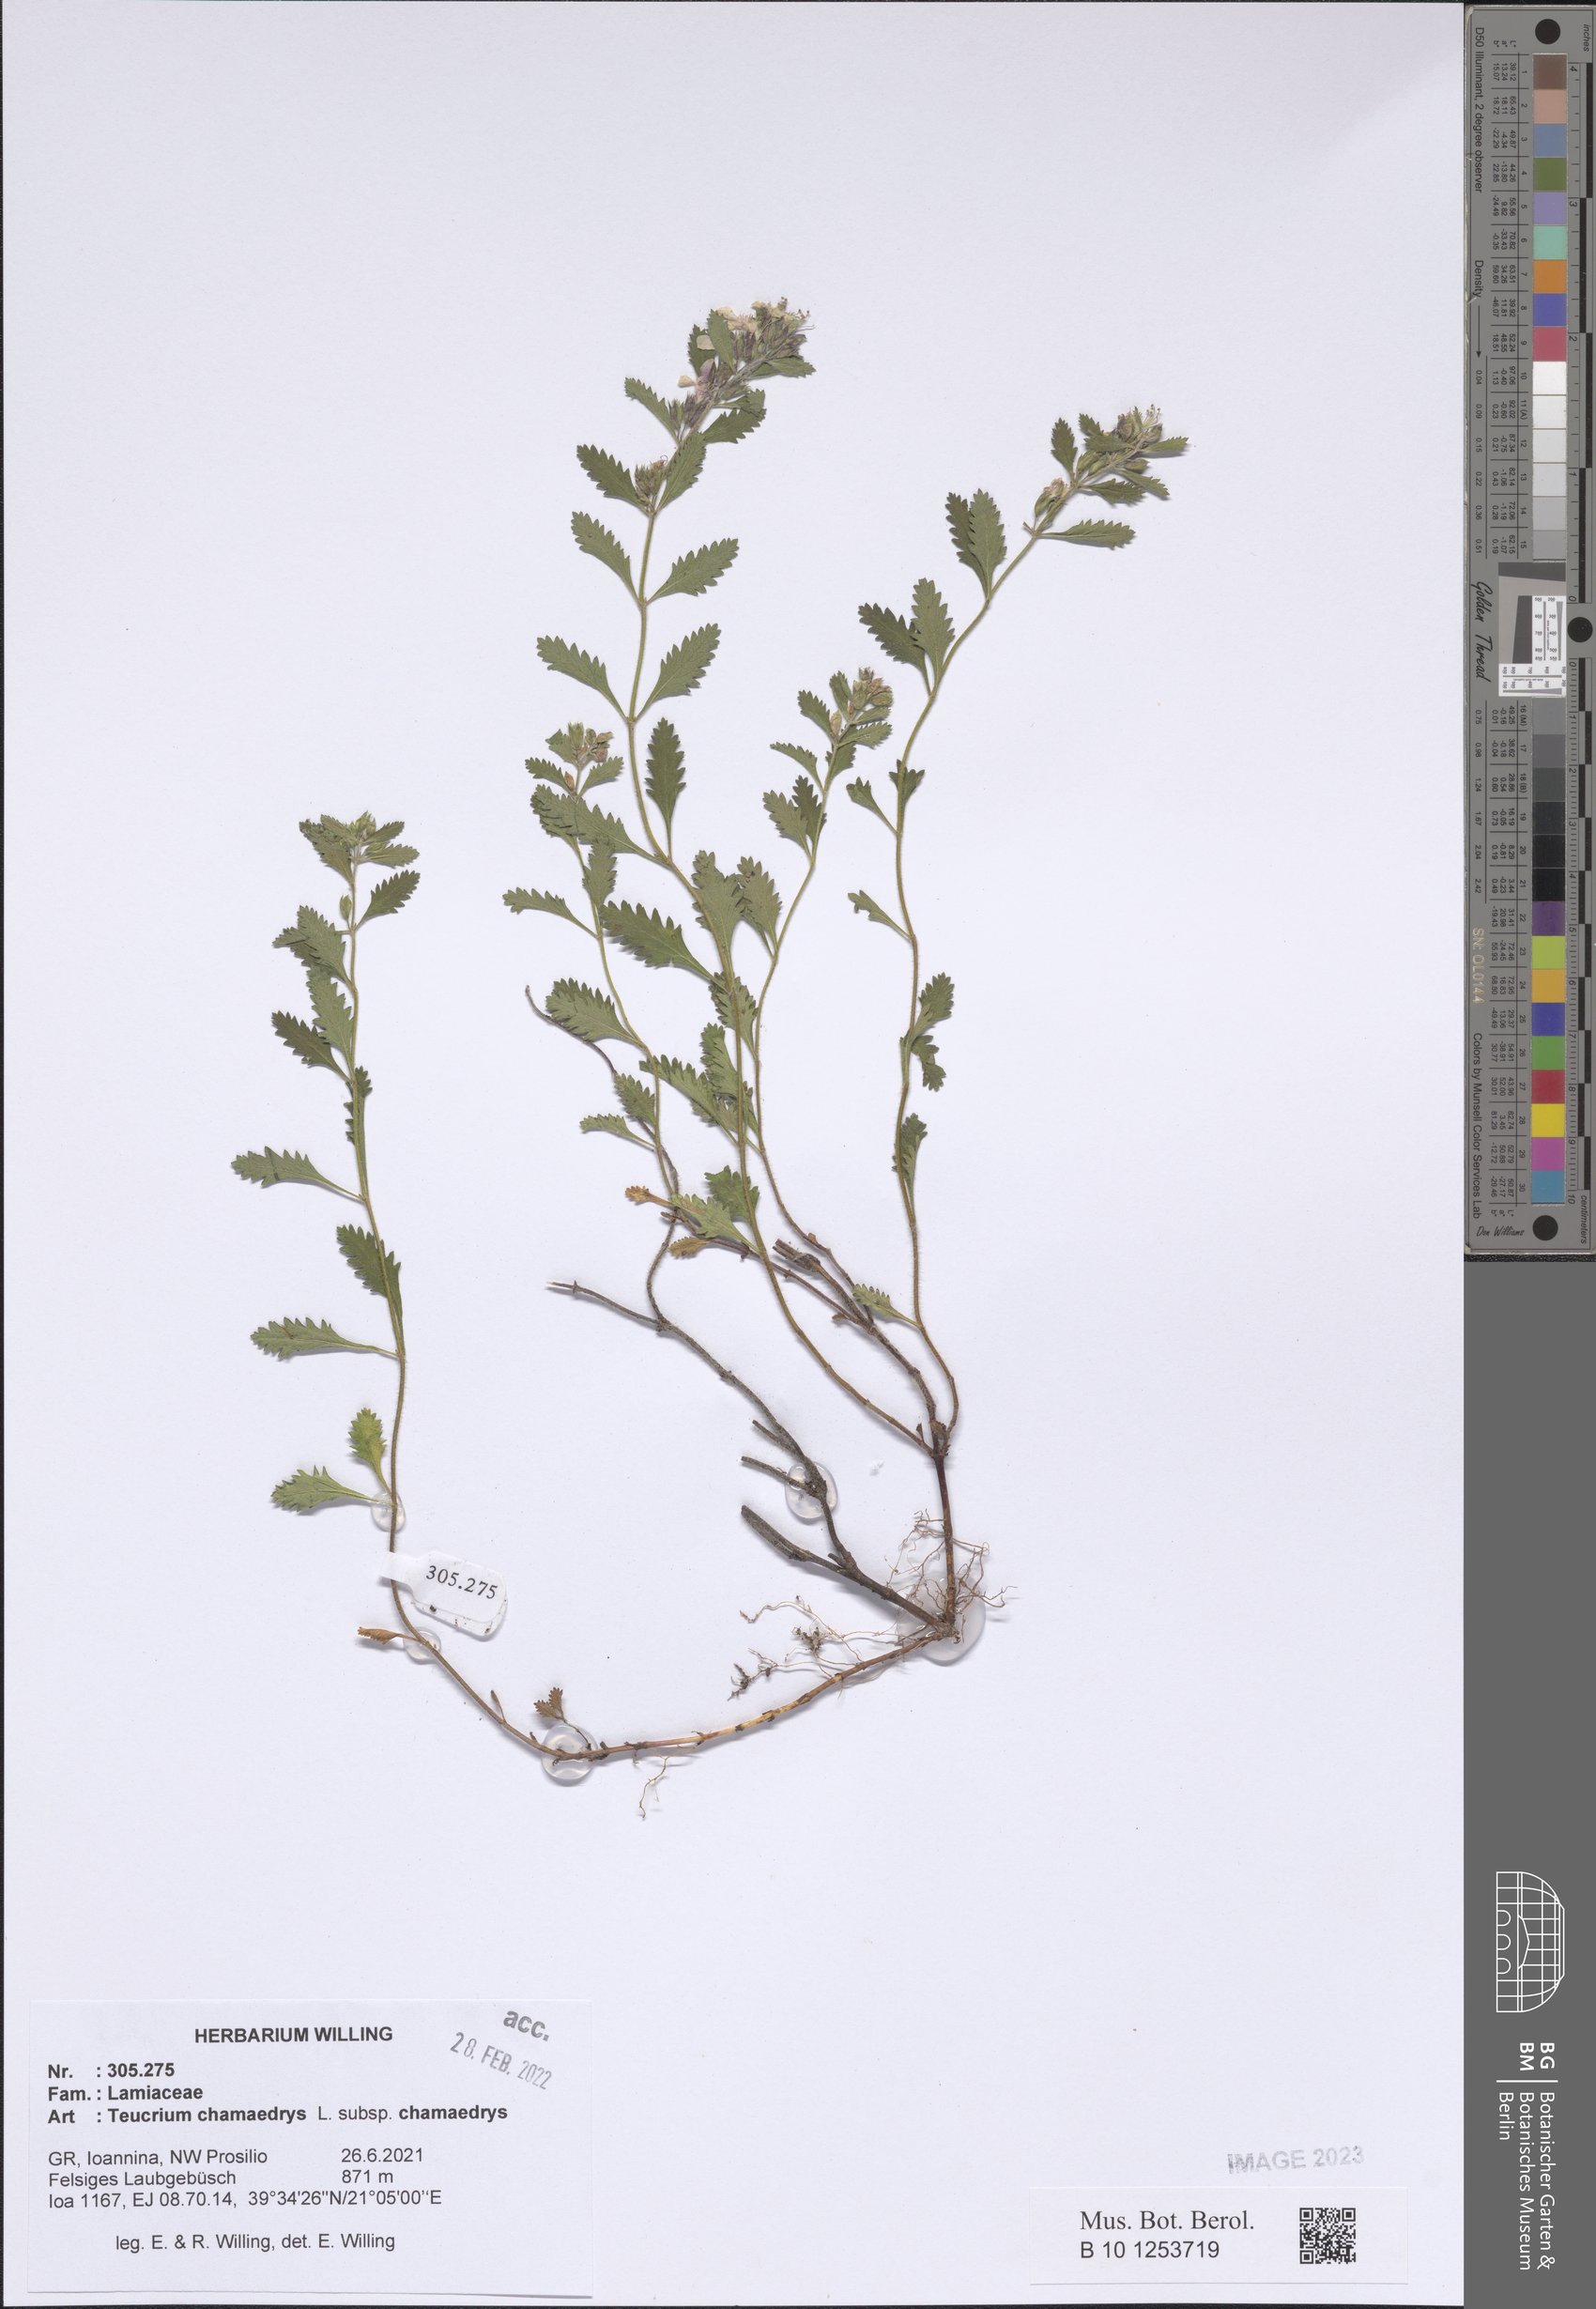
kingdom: Plantae
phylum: Tracheophyta
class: Magnoliopsida
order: Lamiales
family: Lamiaceae
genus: Teucrium
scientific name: Teucrium chamaedrys
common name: Wall germander
